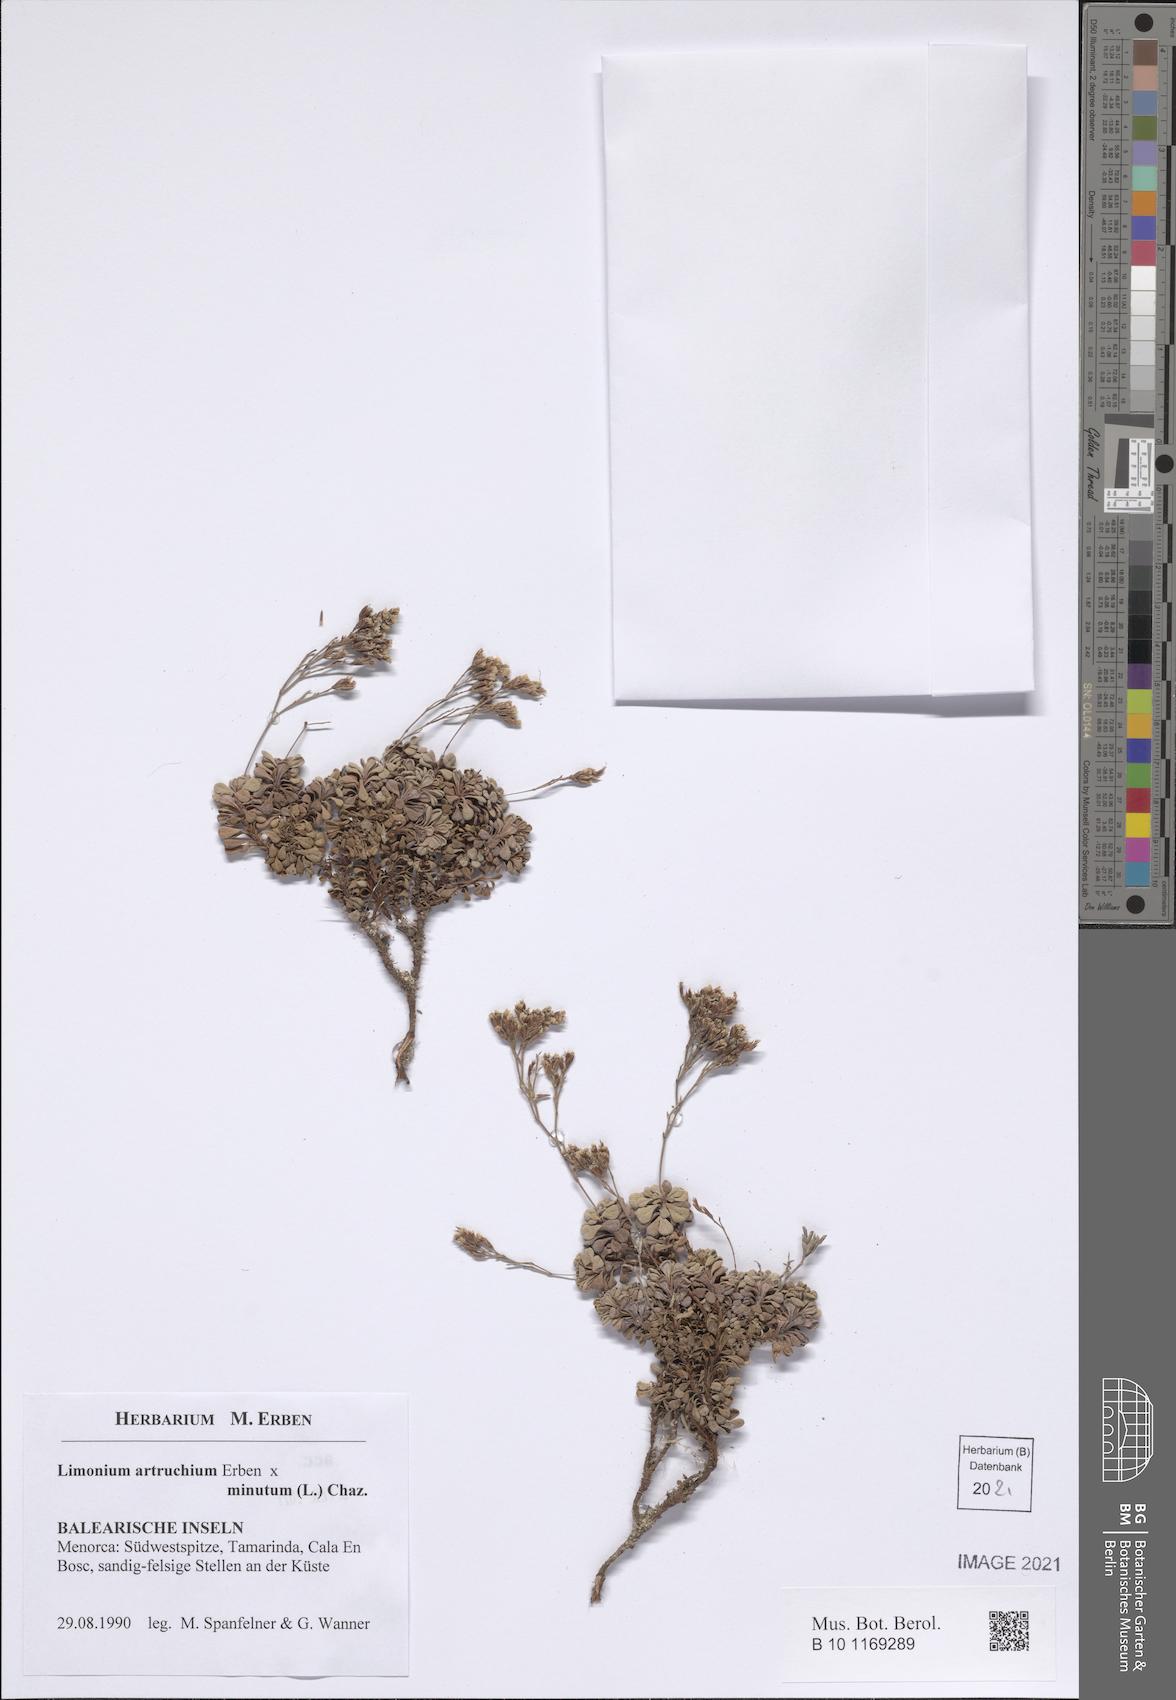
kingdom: Plantae
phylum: Tracheophyta
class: Magnoliopsida
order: Caryophyllales
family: Plumbaginaceae
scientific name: Plumbaginaceae
